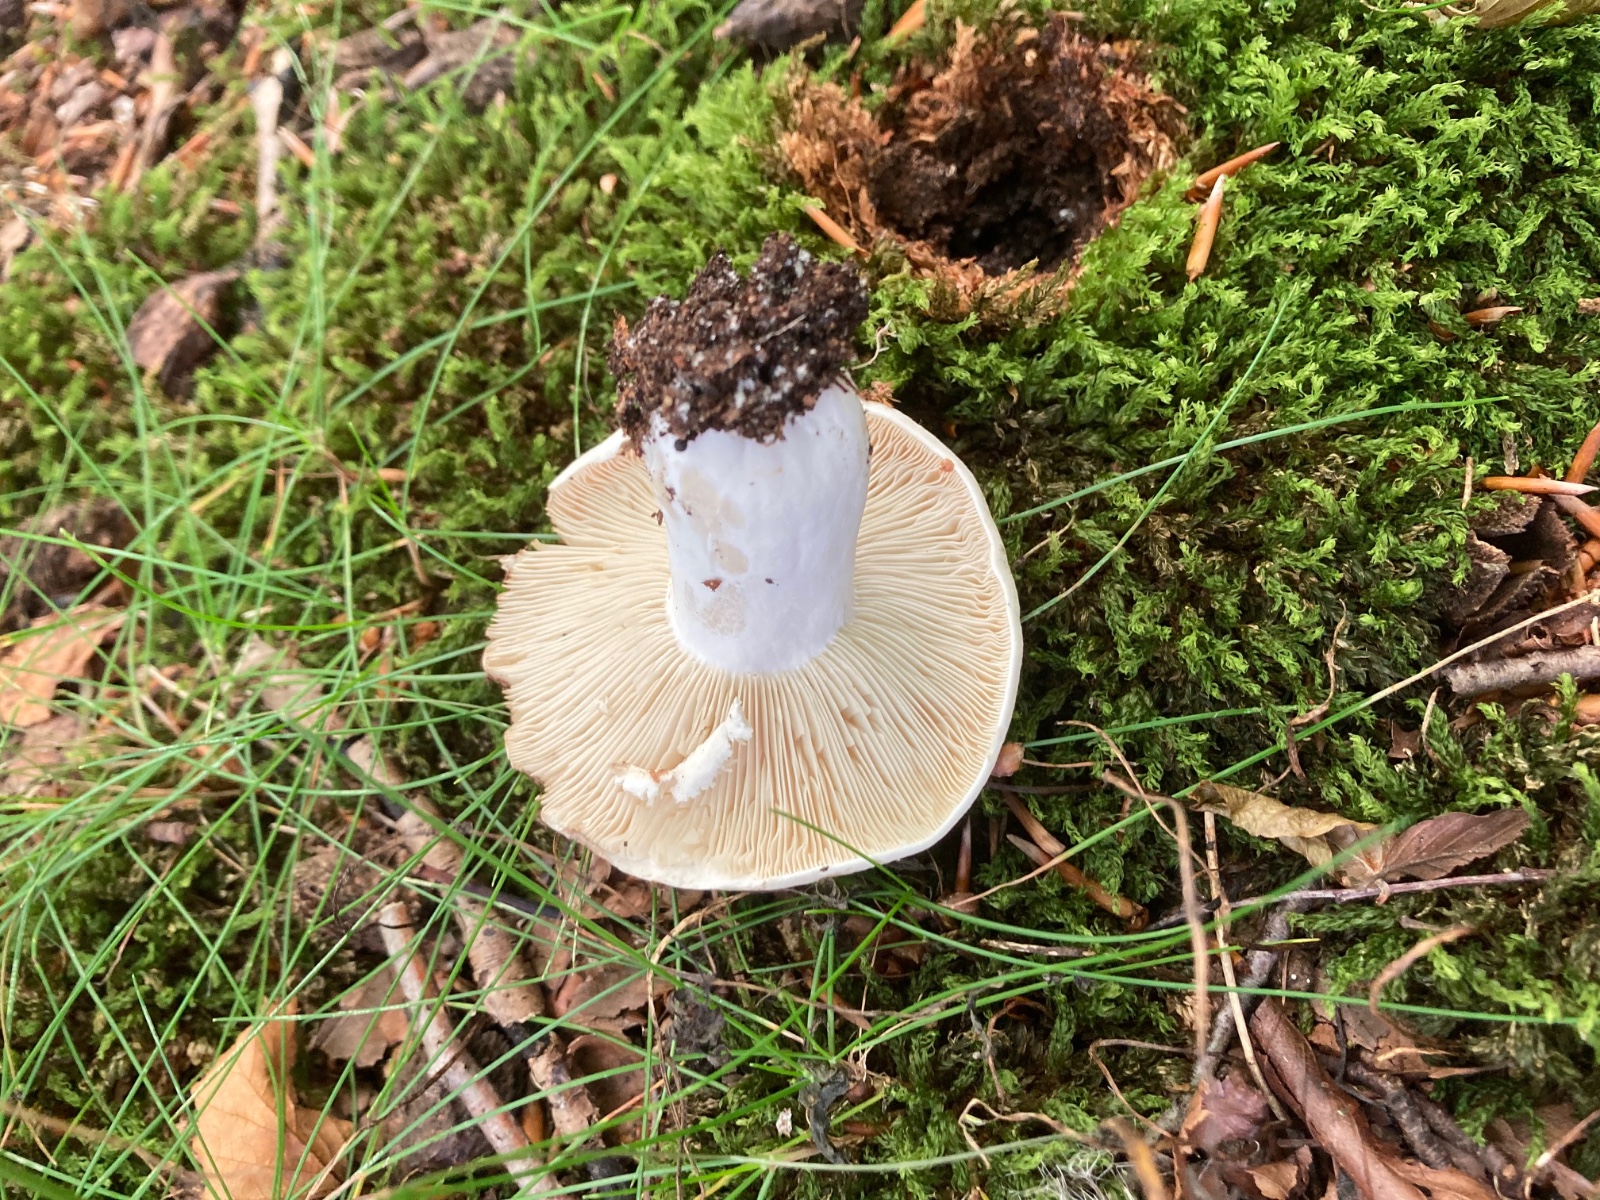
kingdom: Fungi
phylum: Basidiomycota
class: Agaricomycetes
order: Russulales
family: Russulaceae
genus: Russula
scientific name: Russula densifolia
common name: tætbladet skørhat
